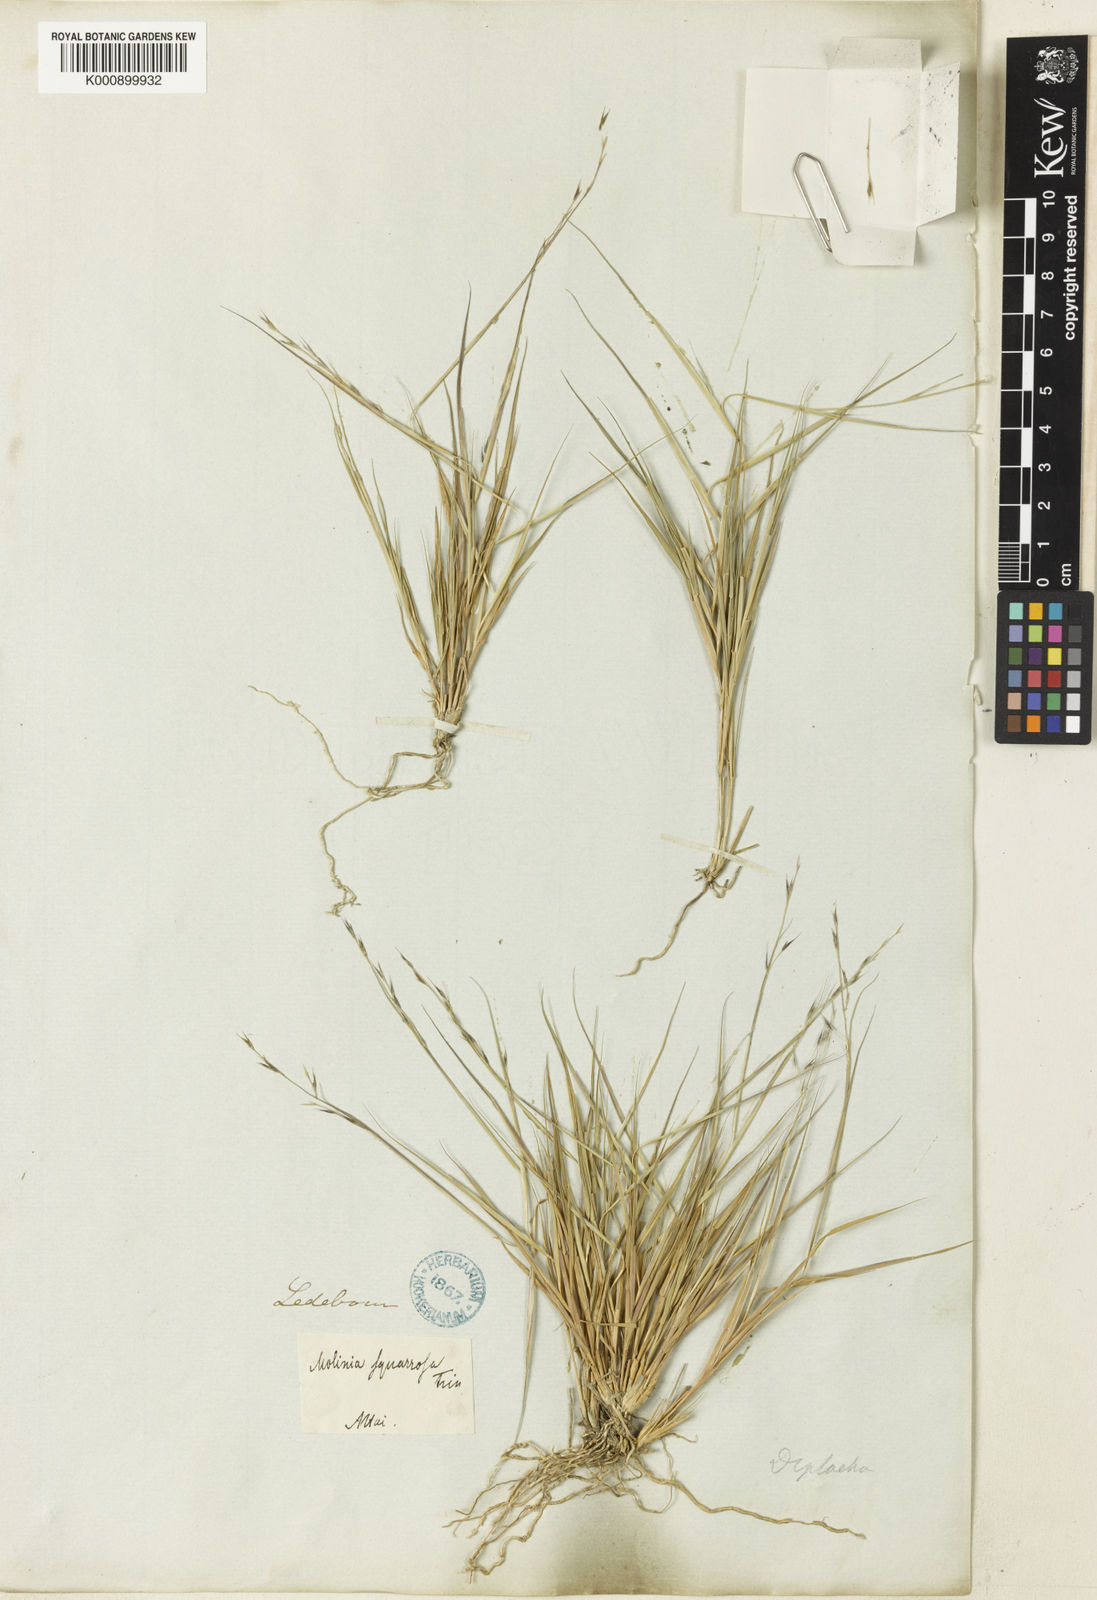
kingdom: Plantae
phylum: Tracheophyta
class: Liliopsida
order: Poales
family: Poaceae
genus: Cleistogenes
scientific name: Cleistogenes squarrosa
